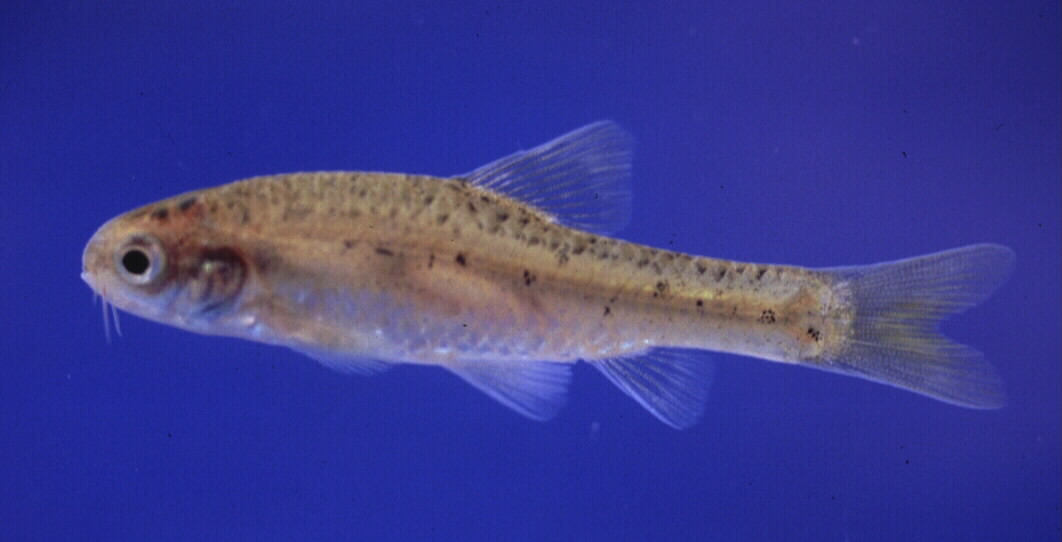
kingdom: Animalia
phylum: Chordata
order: Cypriniformes
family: Cyprinidae
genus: Enteromius
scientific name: Enteromius pallidus
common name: Goldie barb
